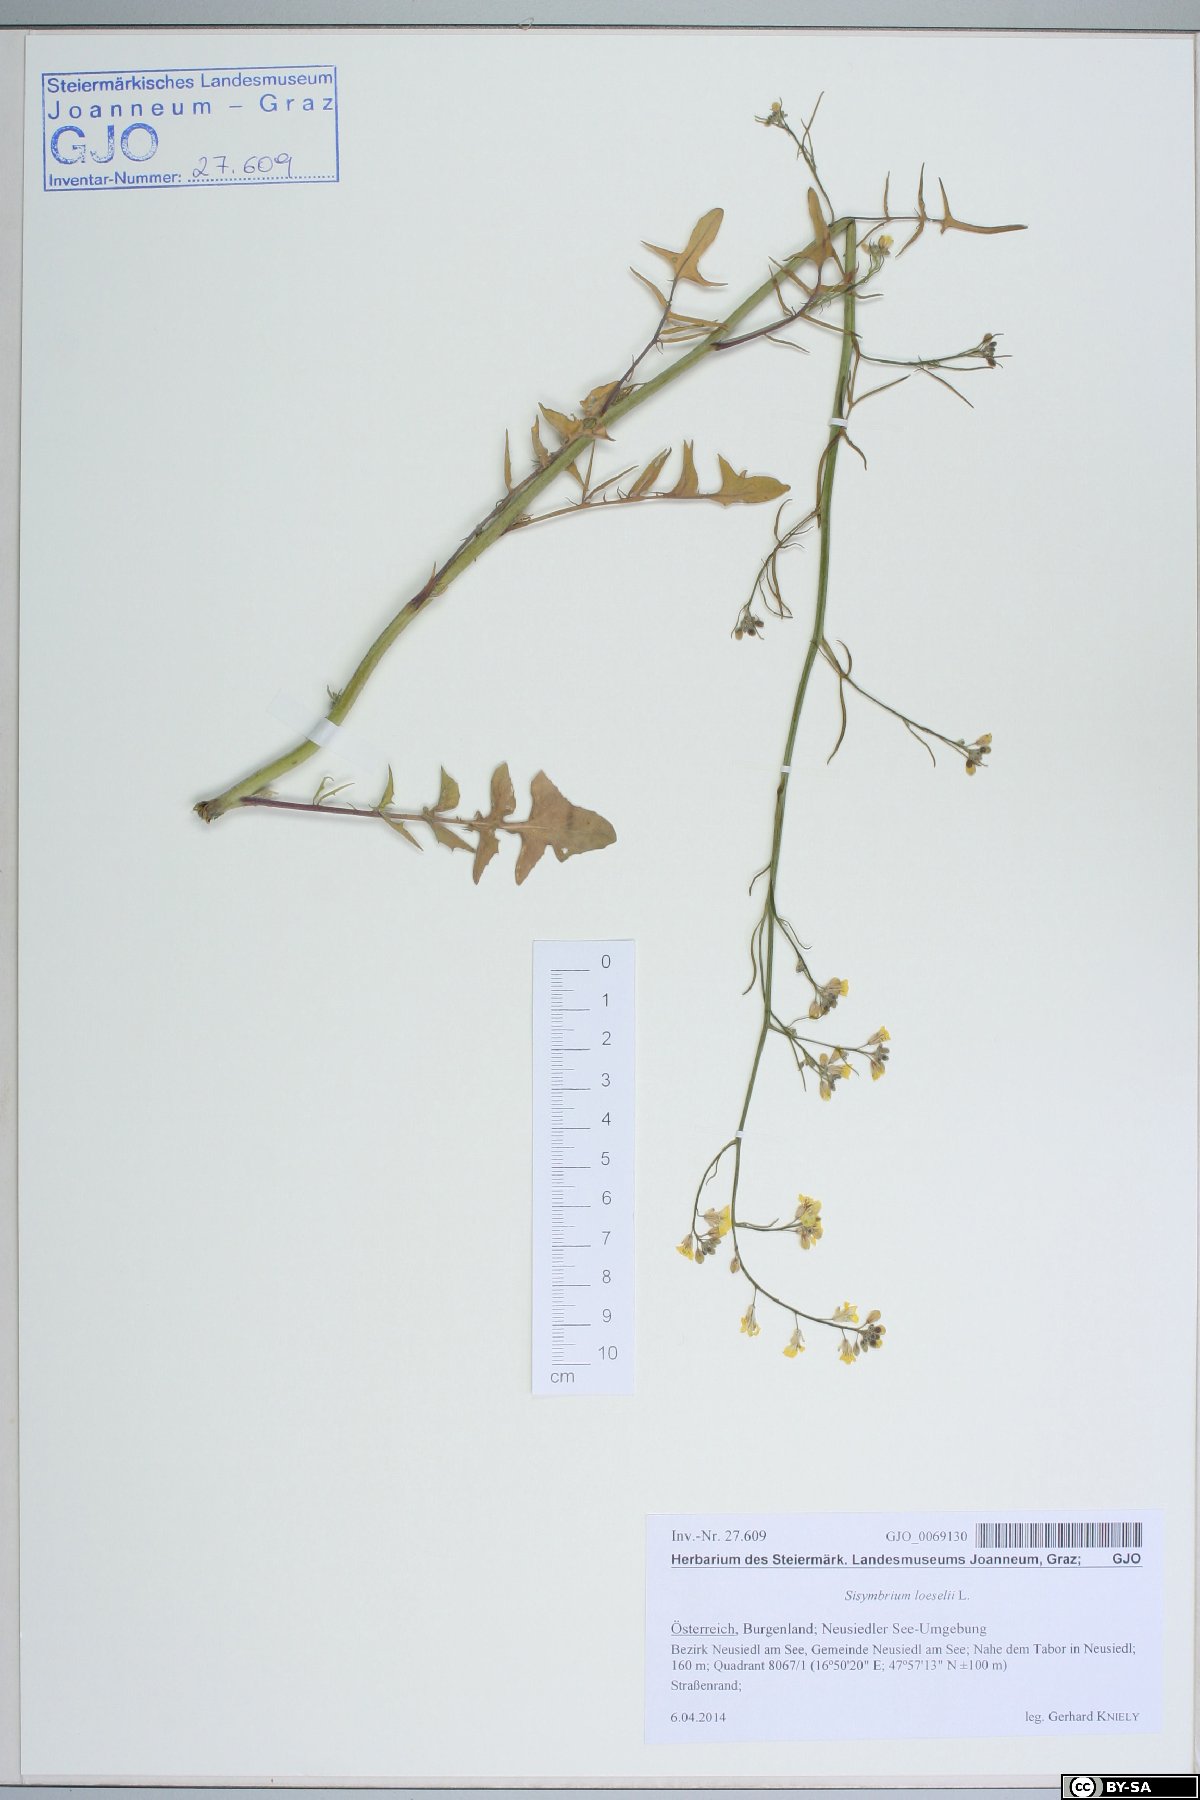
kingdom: Plantae
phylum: Tracheophyta
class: Magnoliopsida
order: Brassicales
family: Brassicaceae
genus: Sisymbrium
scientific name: Sisymbrium loeselii
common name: False london-rocket
